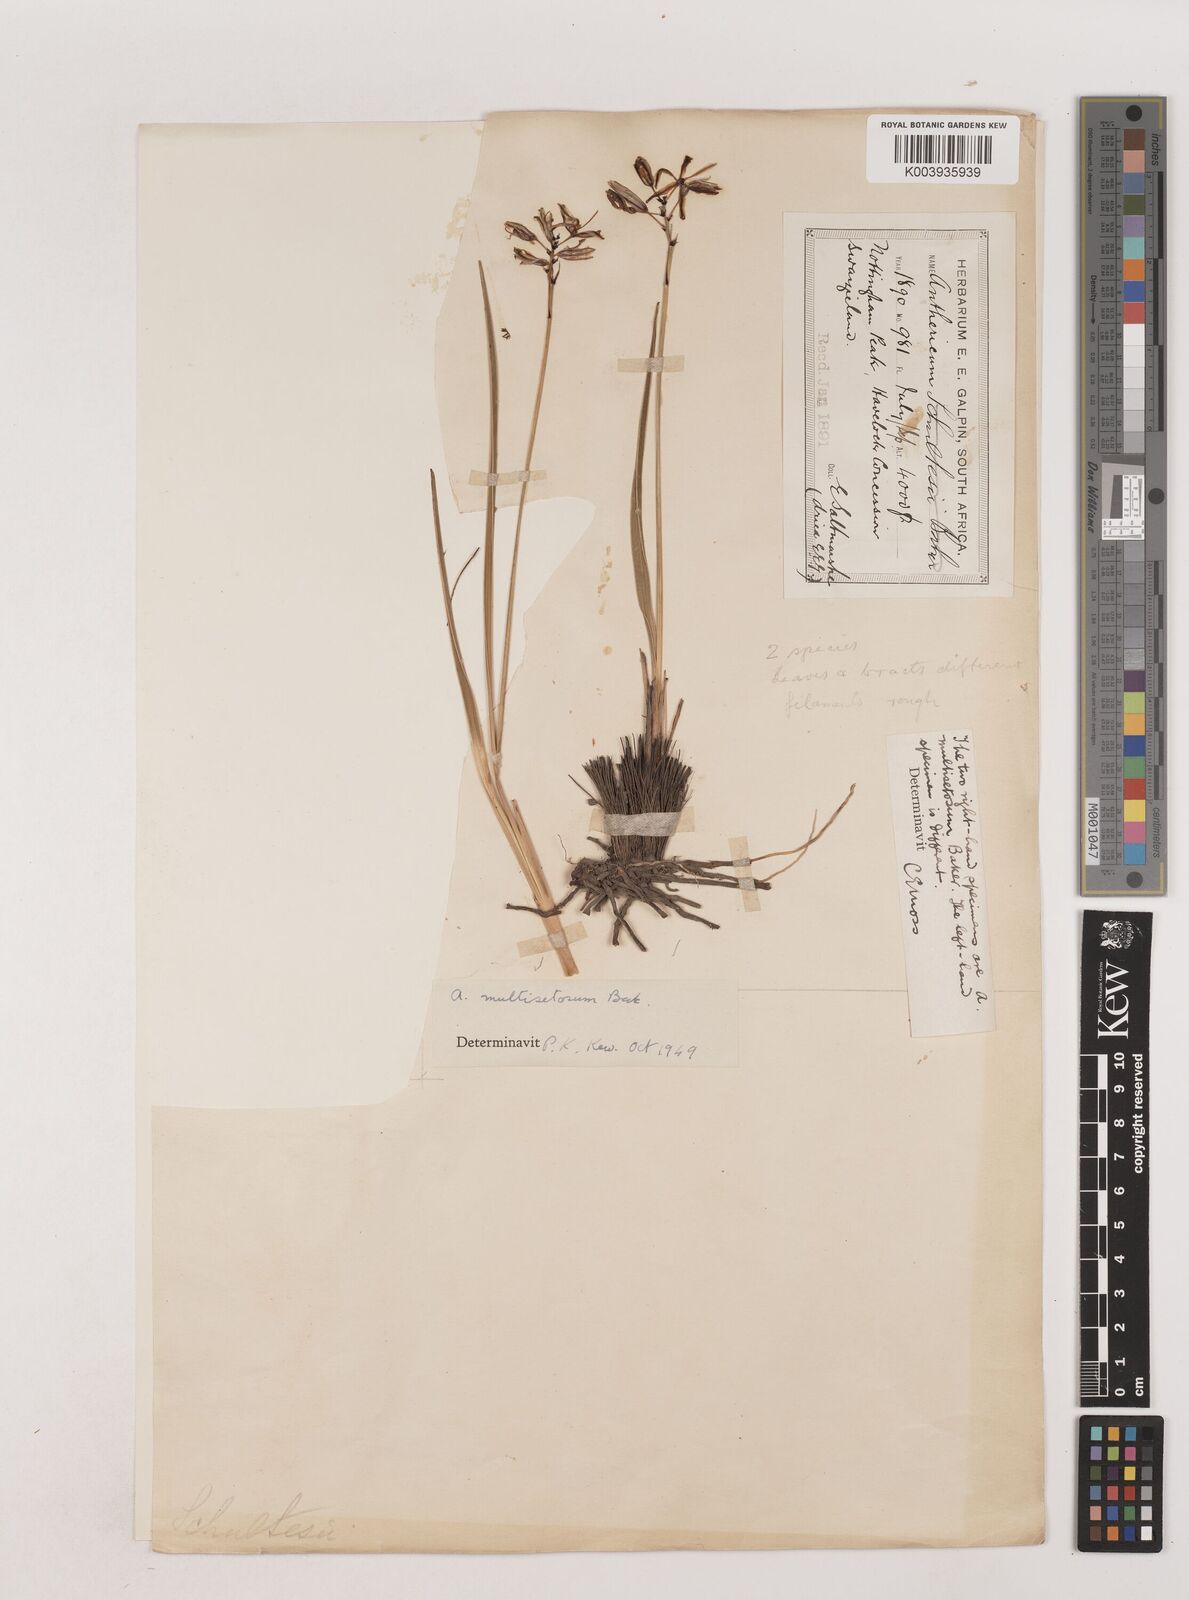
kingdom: Plantae
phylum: Tracheophyta
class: Liliopsida
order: Asparagales
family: Asparagaceae
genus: Chlorophytum
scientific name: Chlorophytum angulicaule
